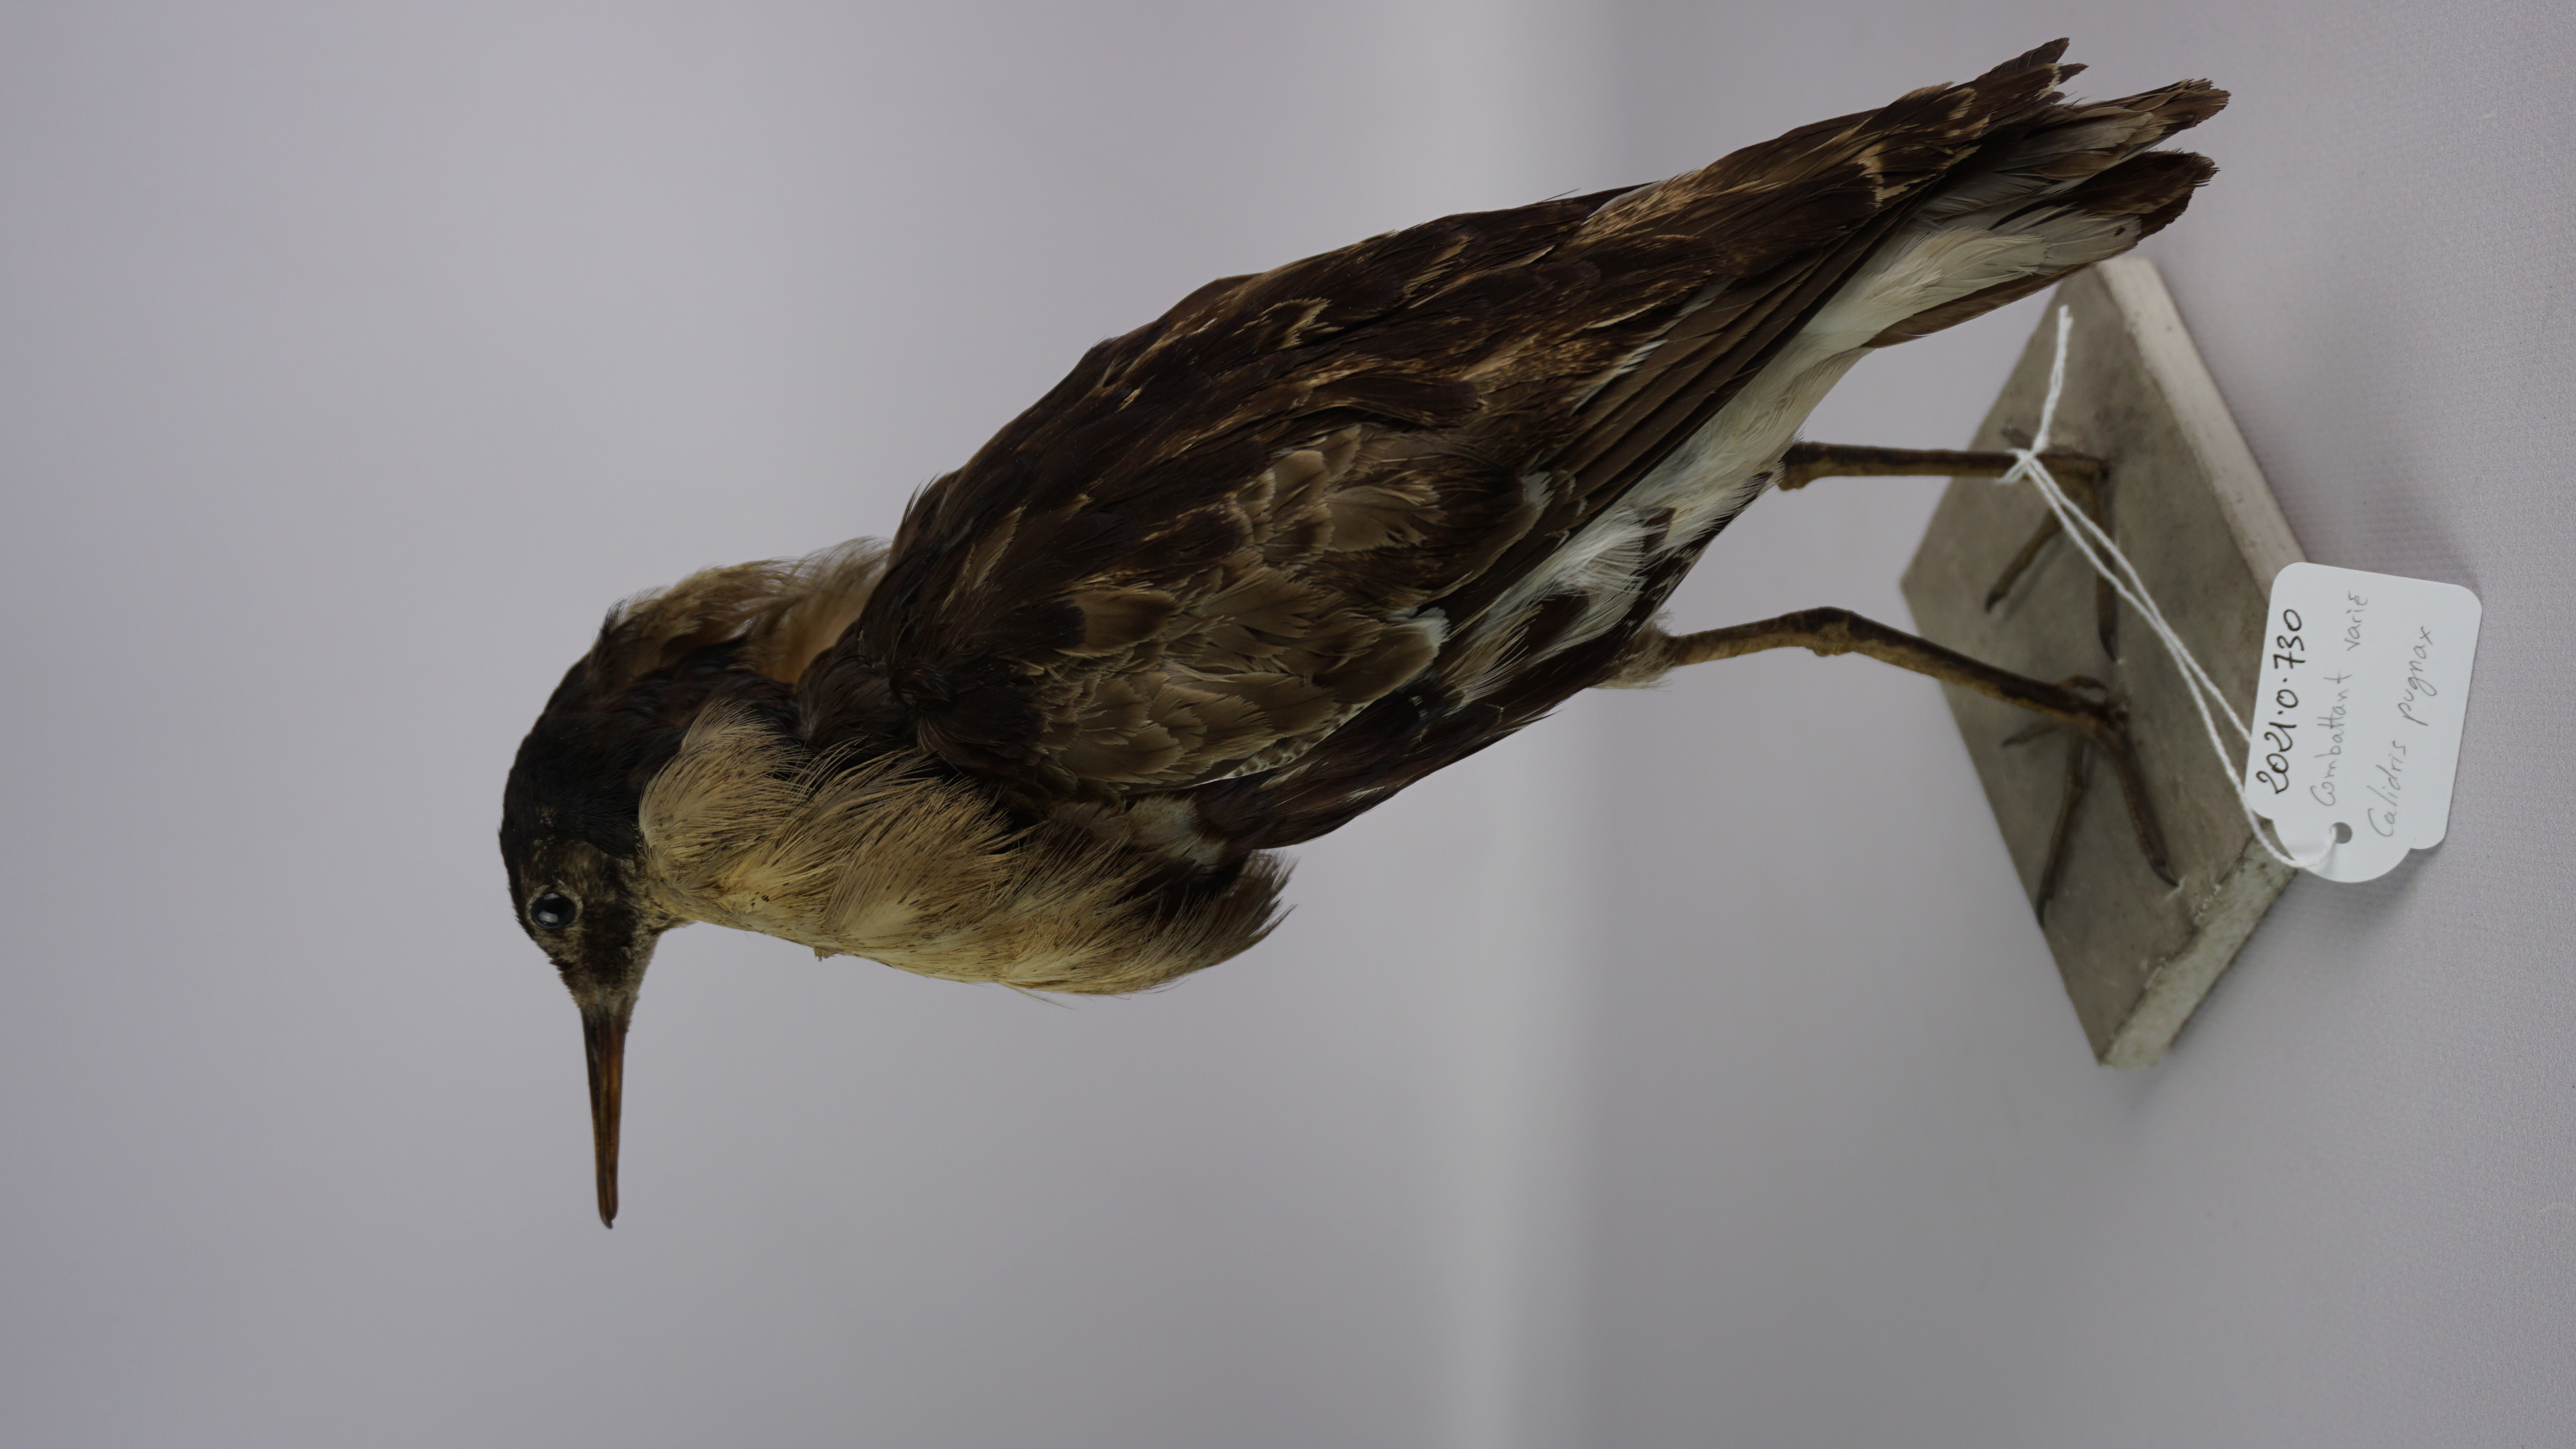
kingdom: Animalia
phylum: Chordata
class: Aves
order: Charadriiformes
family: Scolopacidae
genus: Calidris
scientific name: Calidris pugnax
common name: Ruff
